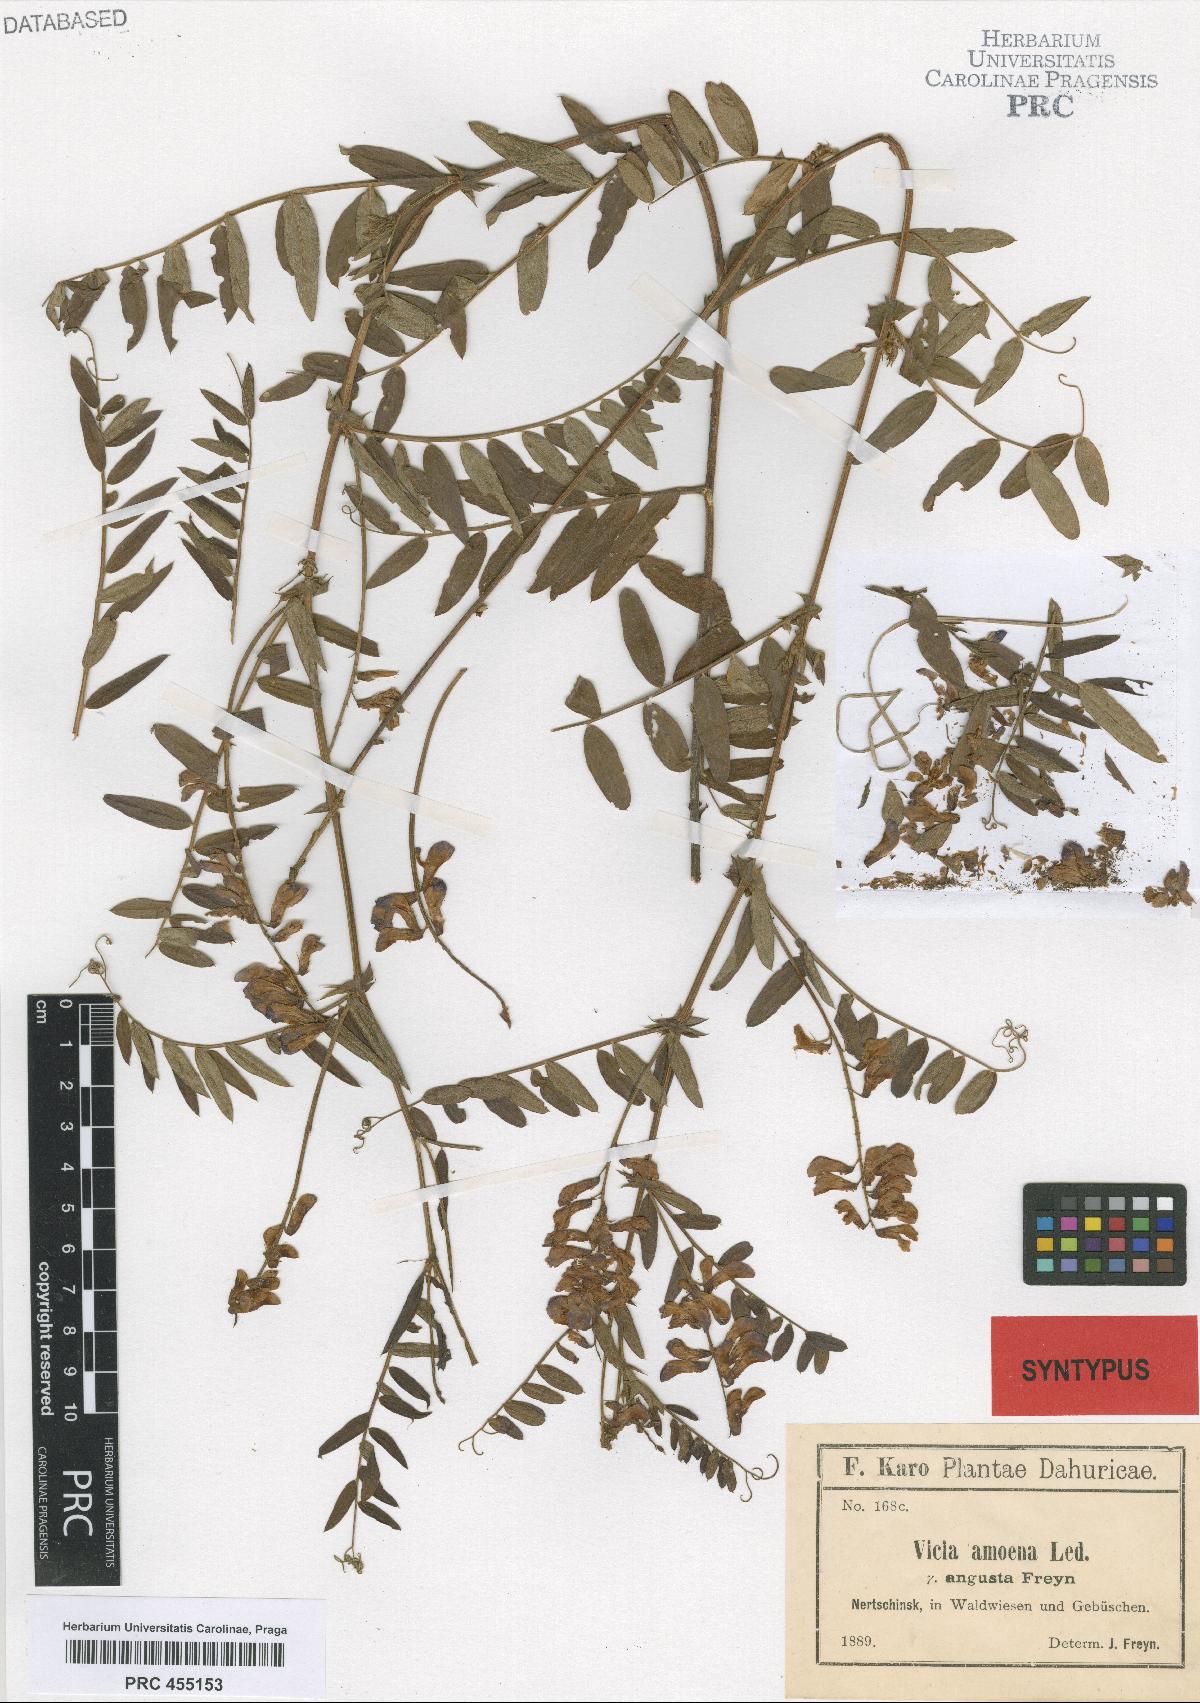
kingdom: Plantae
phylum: Tracheophyta
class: Magnoliopsida
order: Fabales
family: Fabaceae
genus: Vicia
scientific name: Vicia amoena
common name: Cheder ebs
